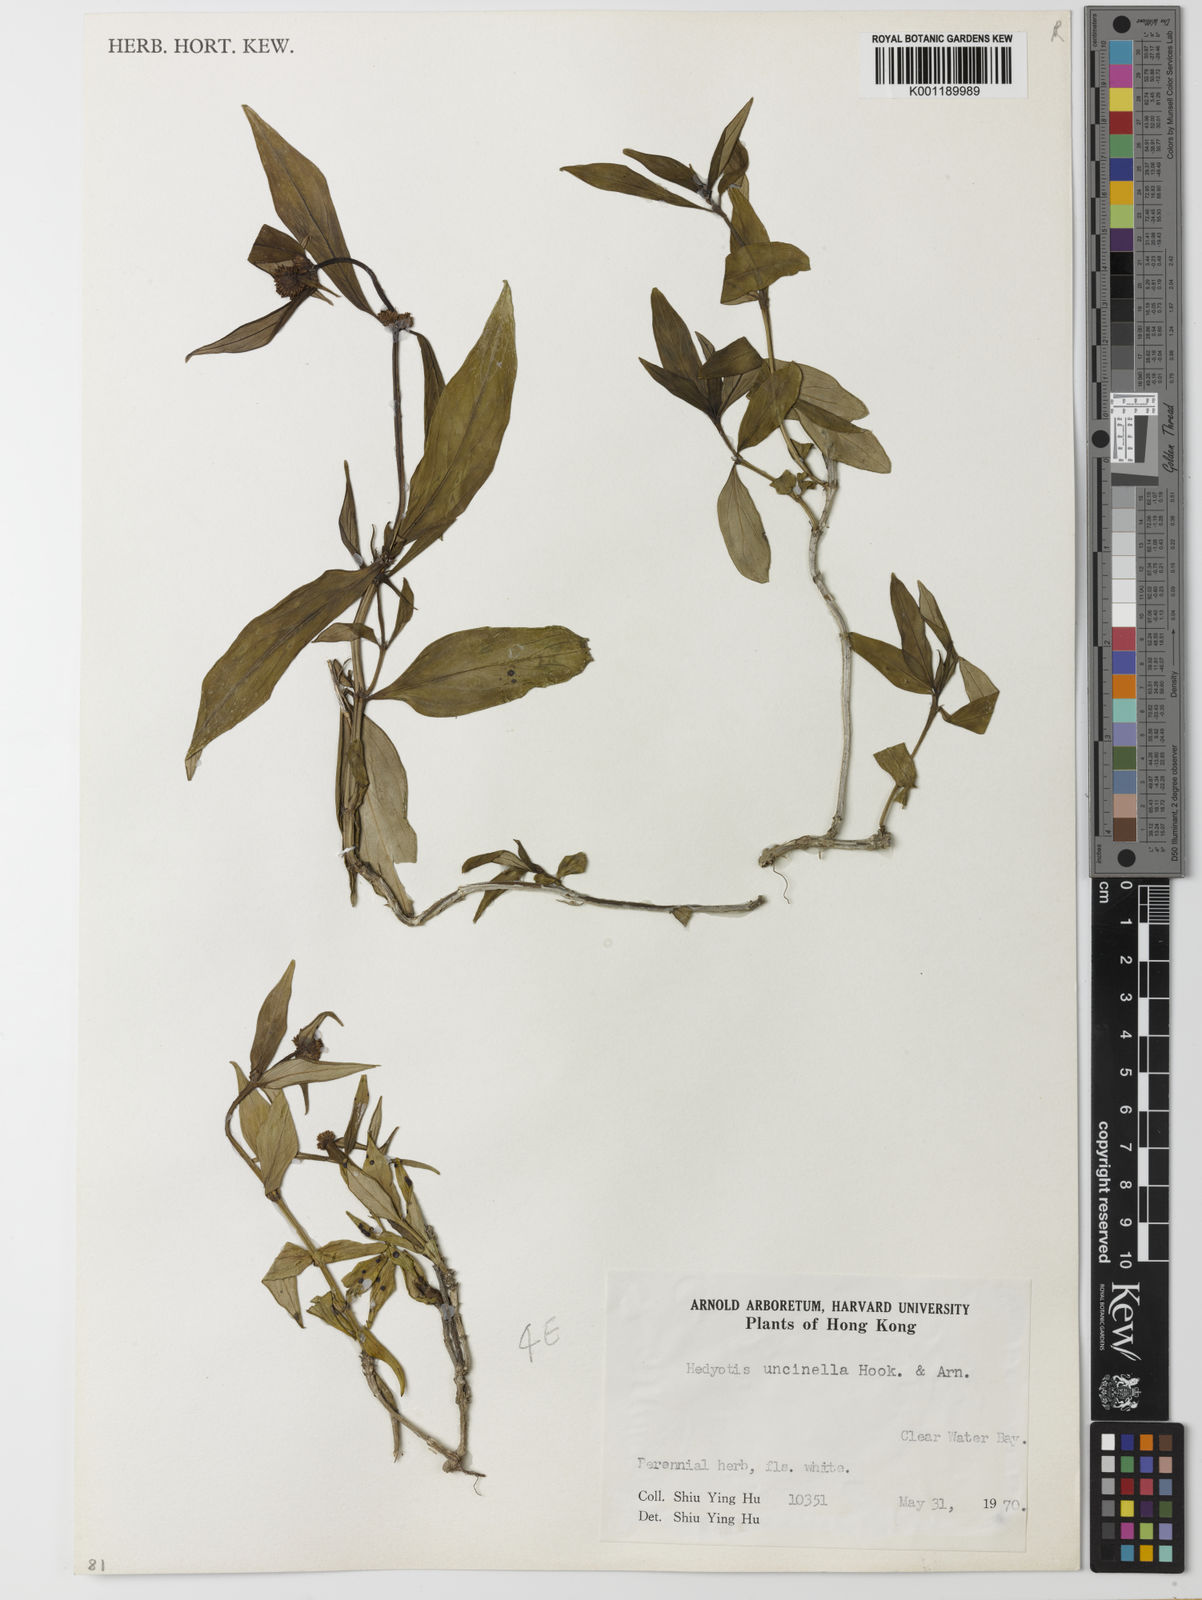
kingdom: Plantae
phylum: Tracheophyta
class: Magnoliopsida
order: Gentianales
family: Rubiaceae
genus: Hedyotis
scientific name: Hedyotis uncinella
